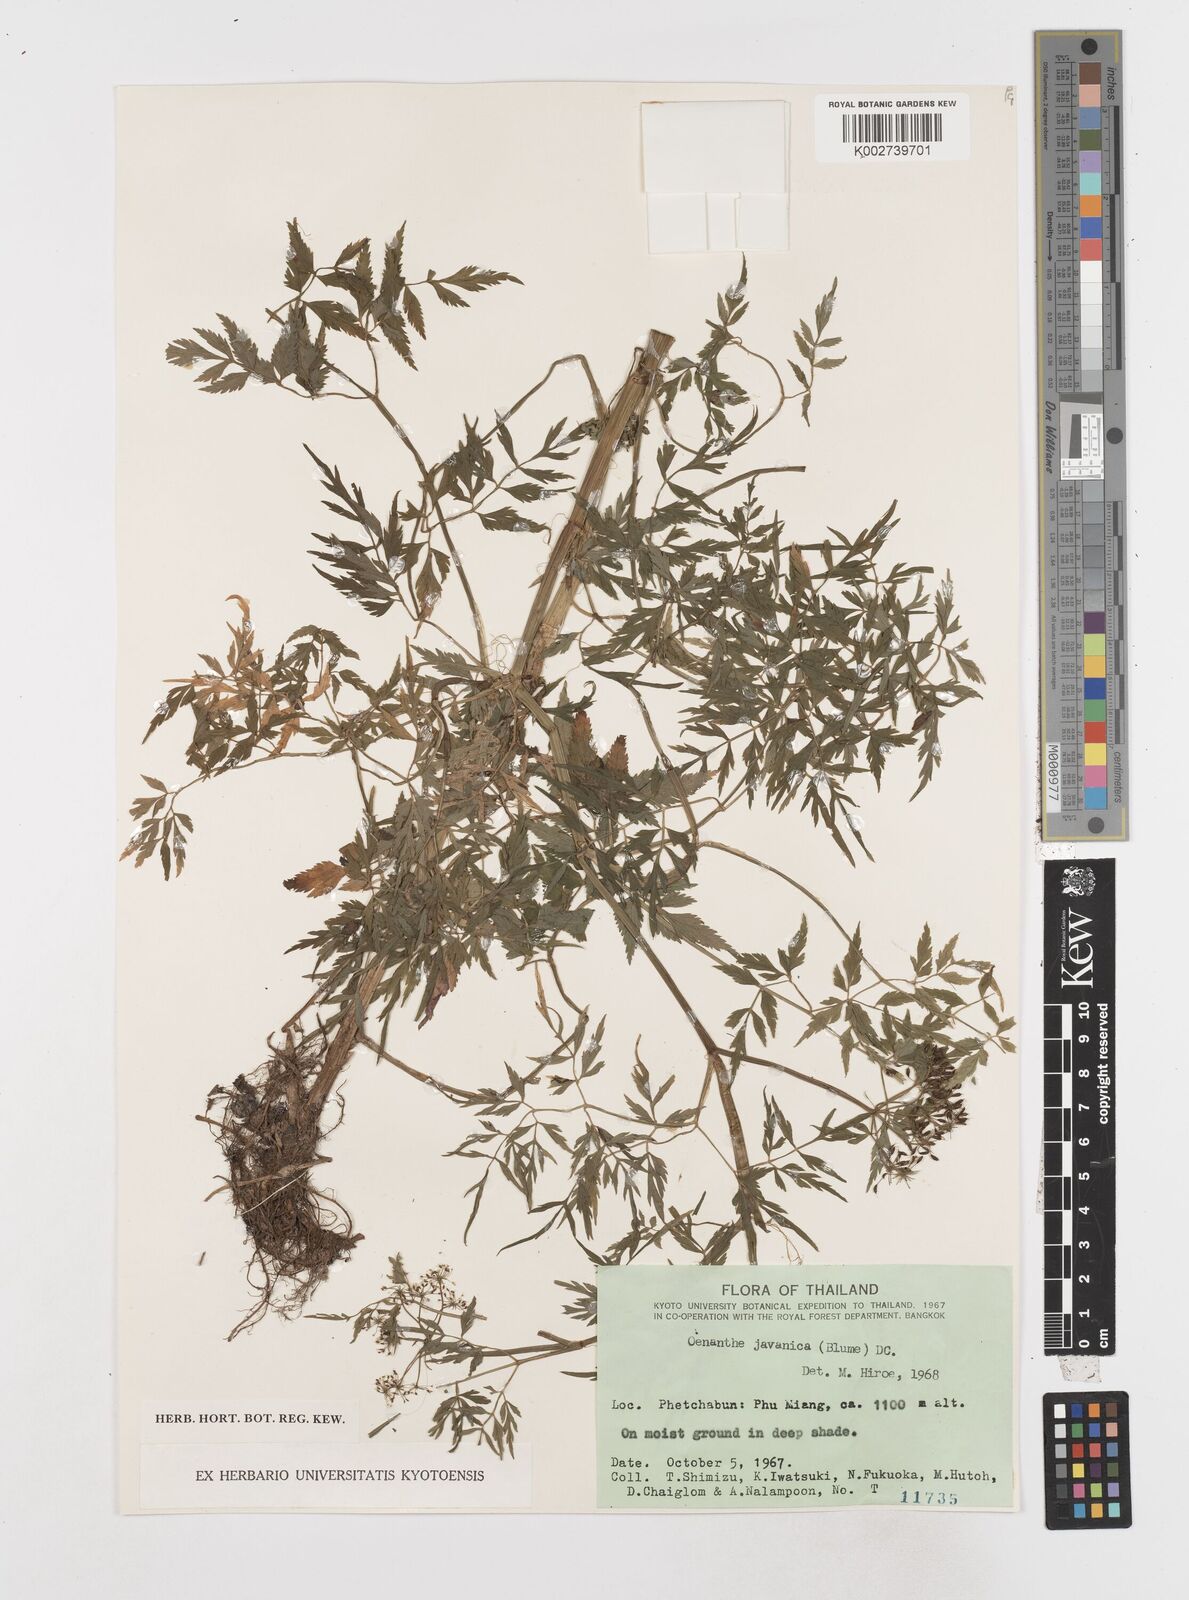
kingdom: Plantae
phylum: Tracheophyta
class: Magnoliopsida
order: Apiales
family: Apiaceae
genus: Oenanthe
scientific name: Oenanthe javanica
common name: Java water-dropwort
